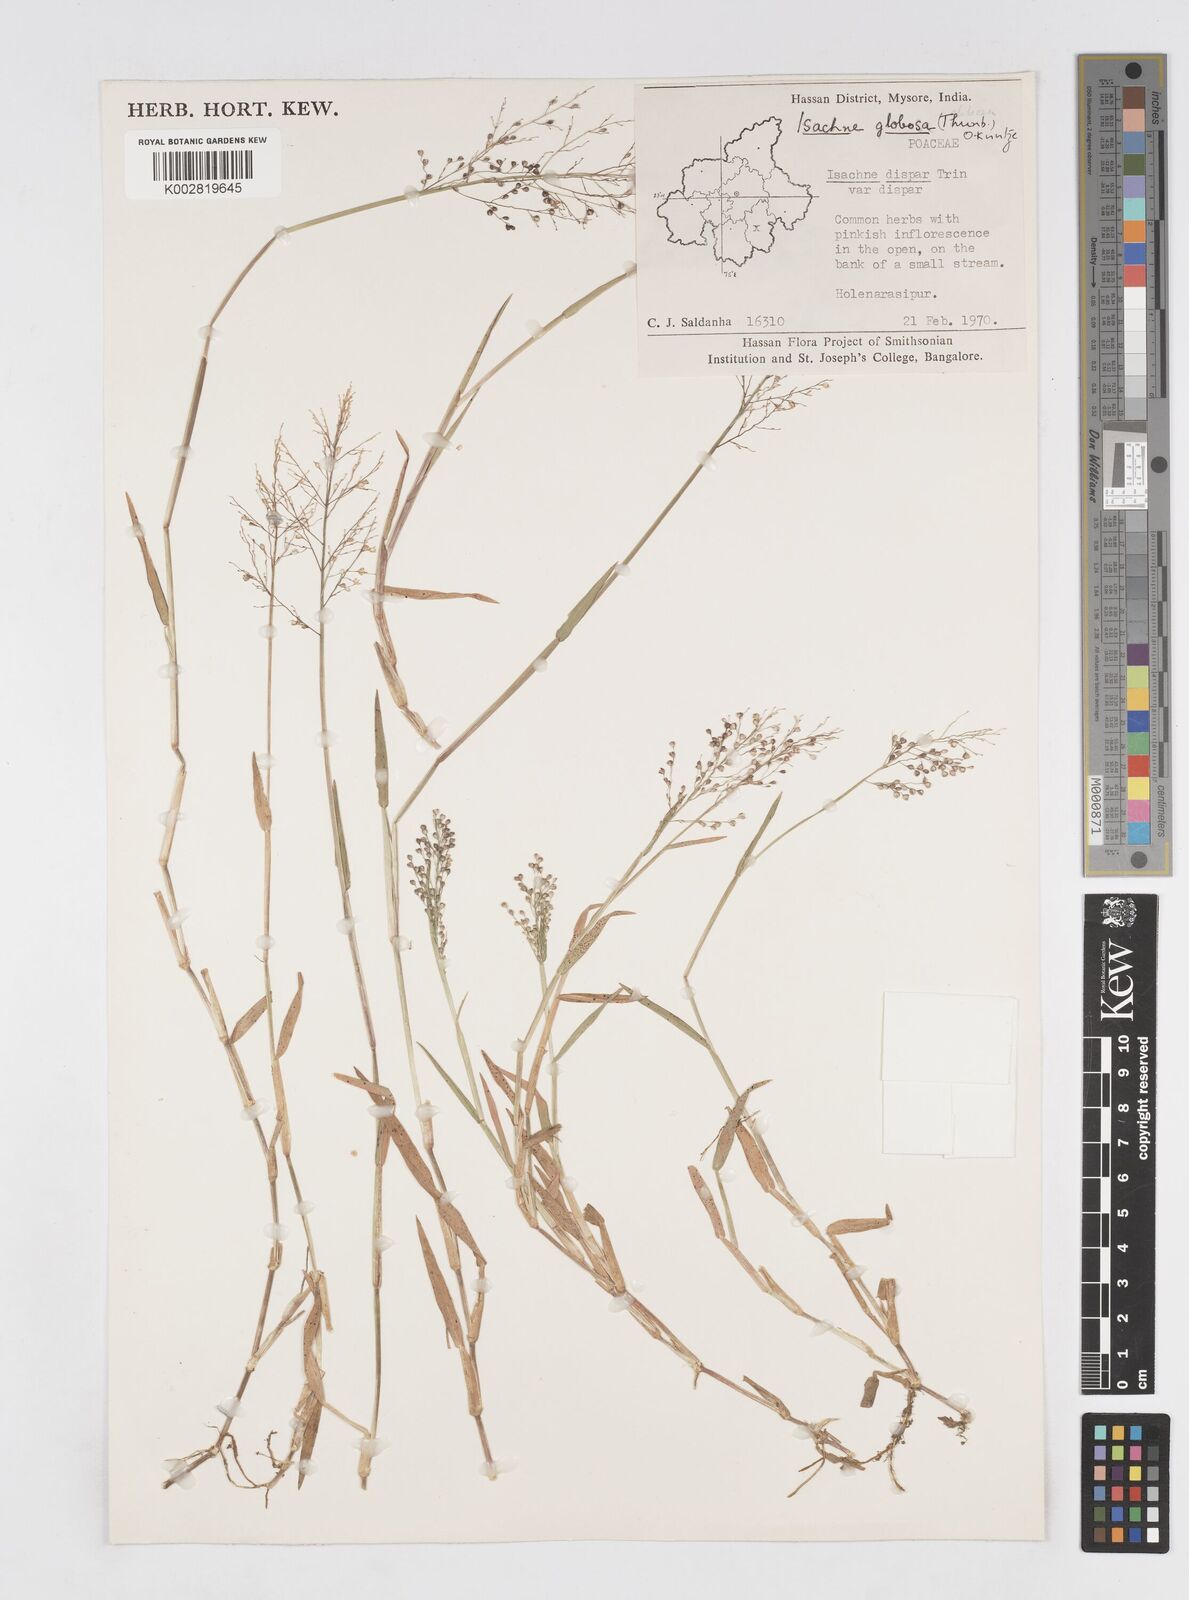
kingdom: Plantae
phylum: Tracheophyta
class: Liliopsida
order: Poales
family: Poaceae
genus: Isachne
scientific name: Isachne globosa
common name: Swamp millet
